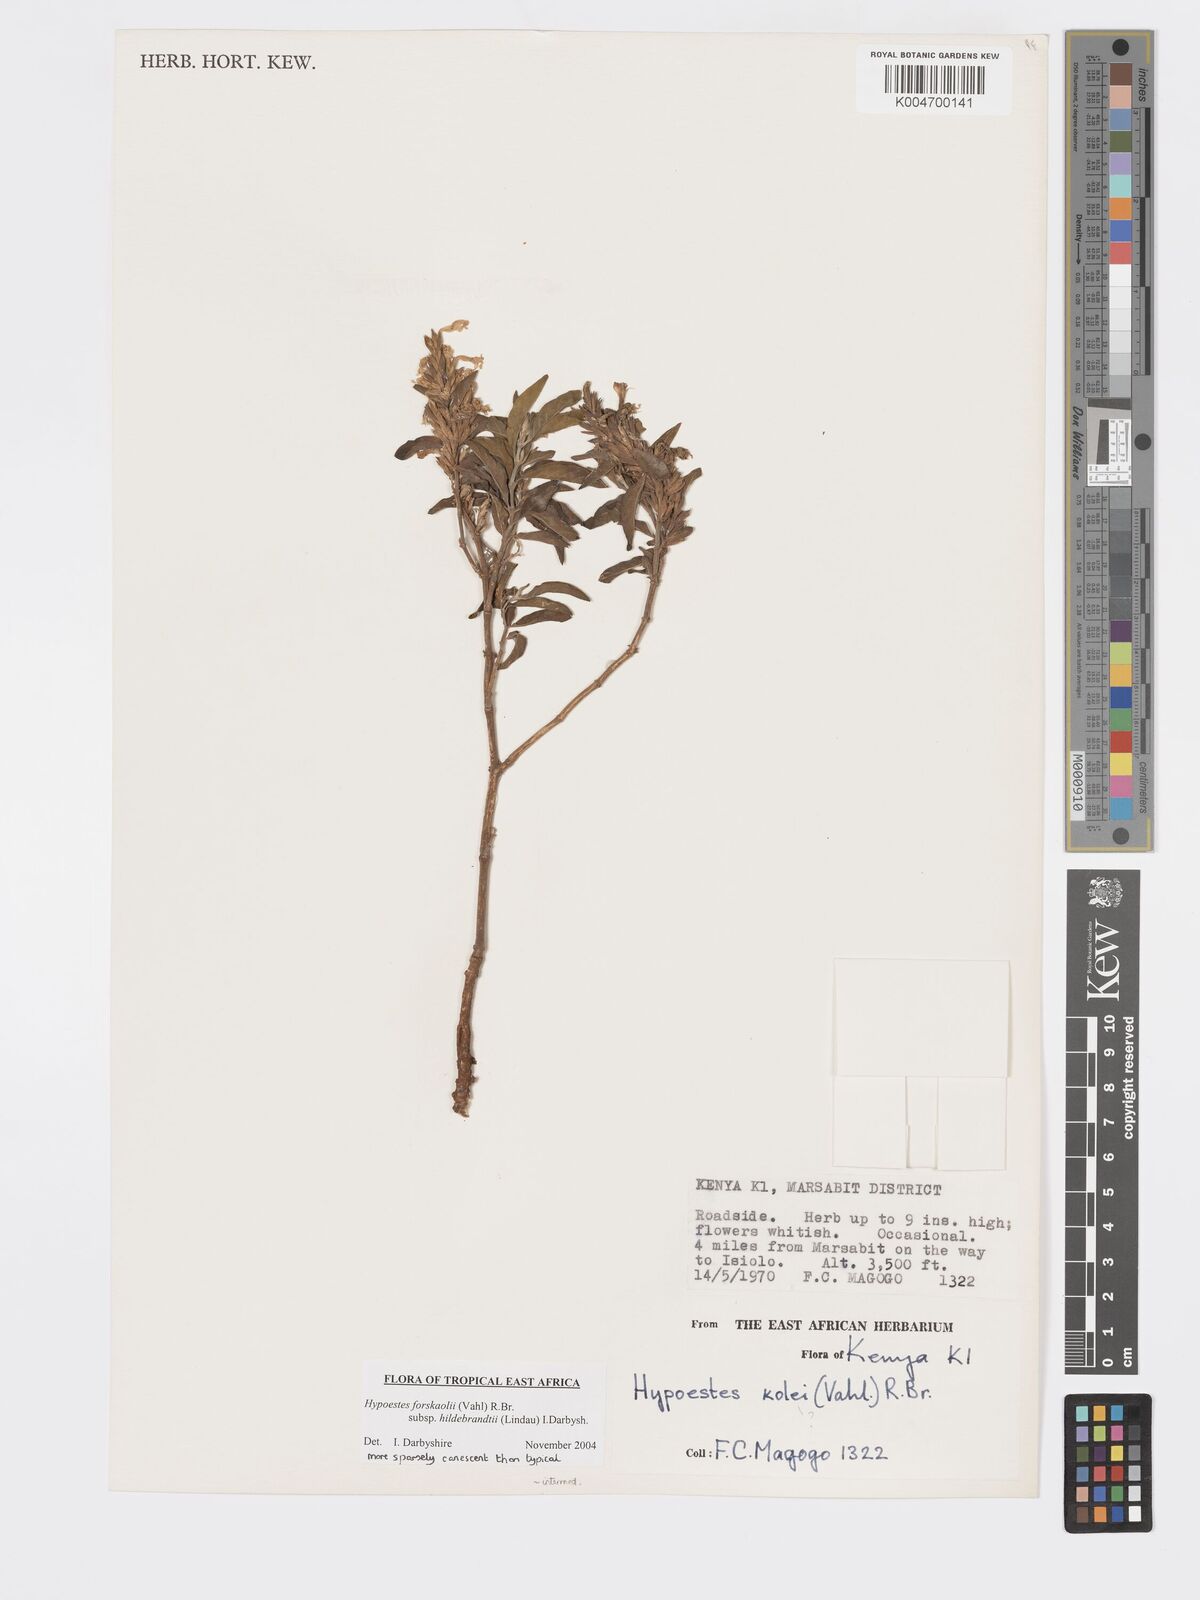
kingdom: Plantae
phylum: Tracheophyta
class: Magnoliopsida
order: Lamiales
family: Acanthaceae
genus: Hypoestes
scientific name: Hypoestes forskaolii
